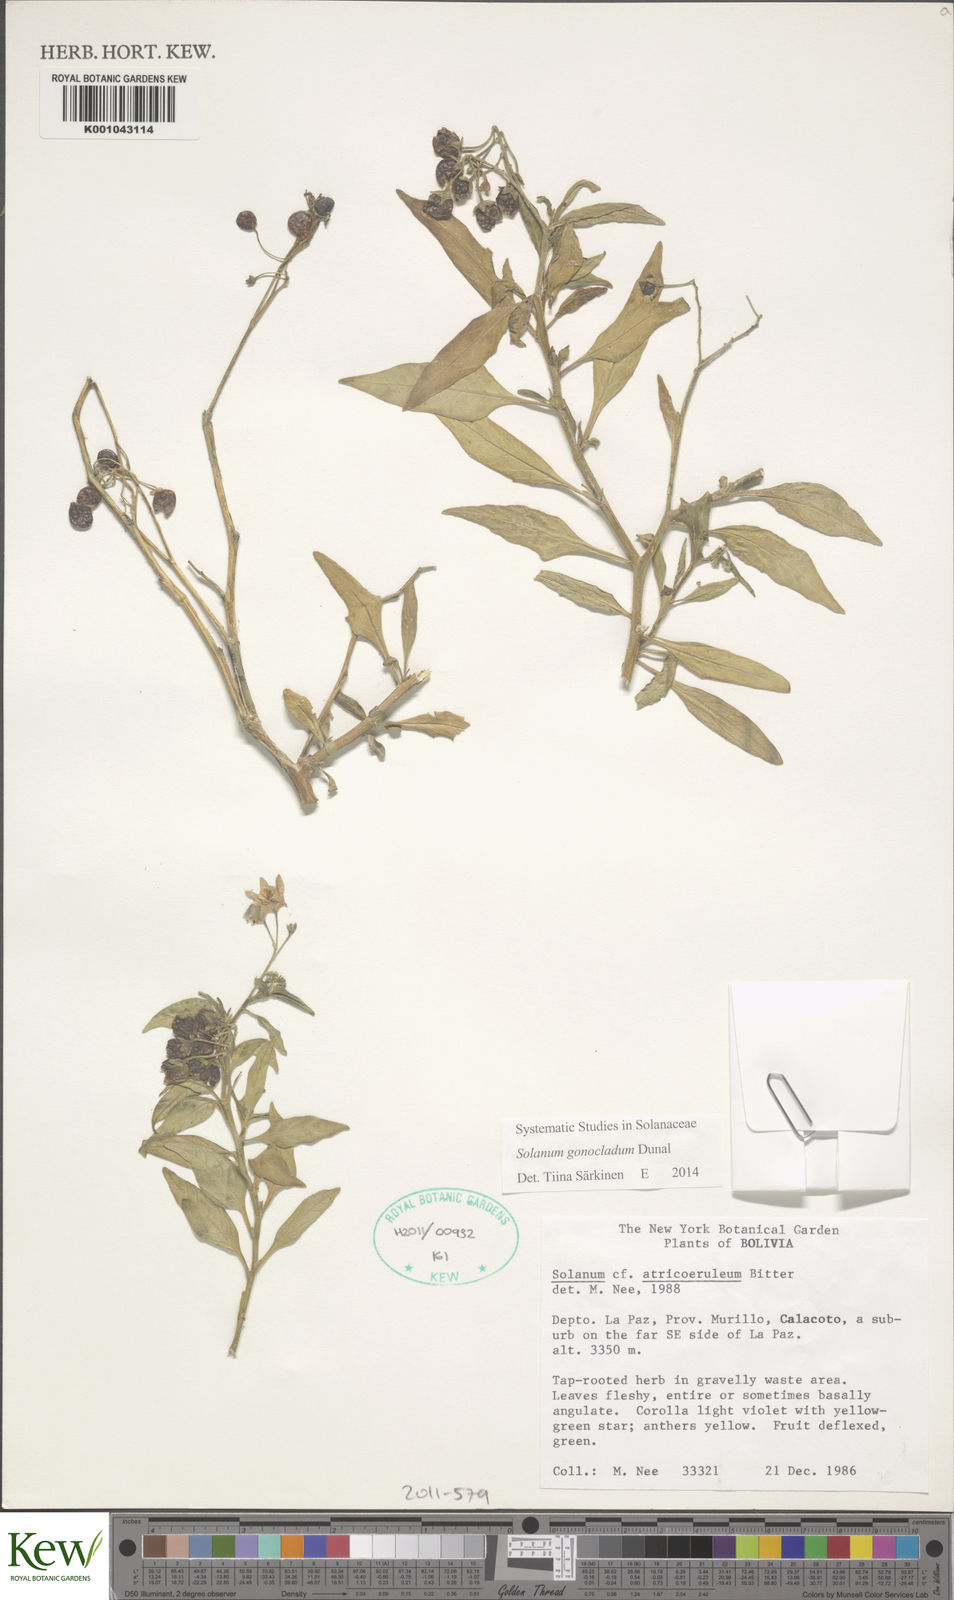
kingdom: Plantae
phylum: Tracheophyta
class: Magnoliopsida
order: Solanales
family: Solanaceae
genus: Solanum
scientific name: Solanum gonocladum
